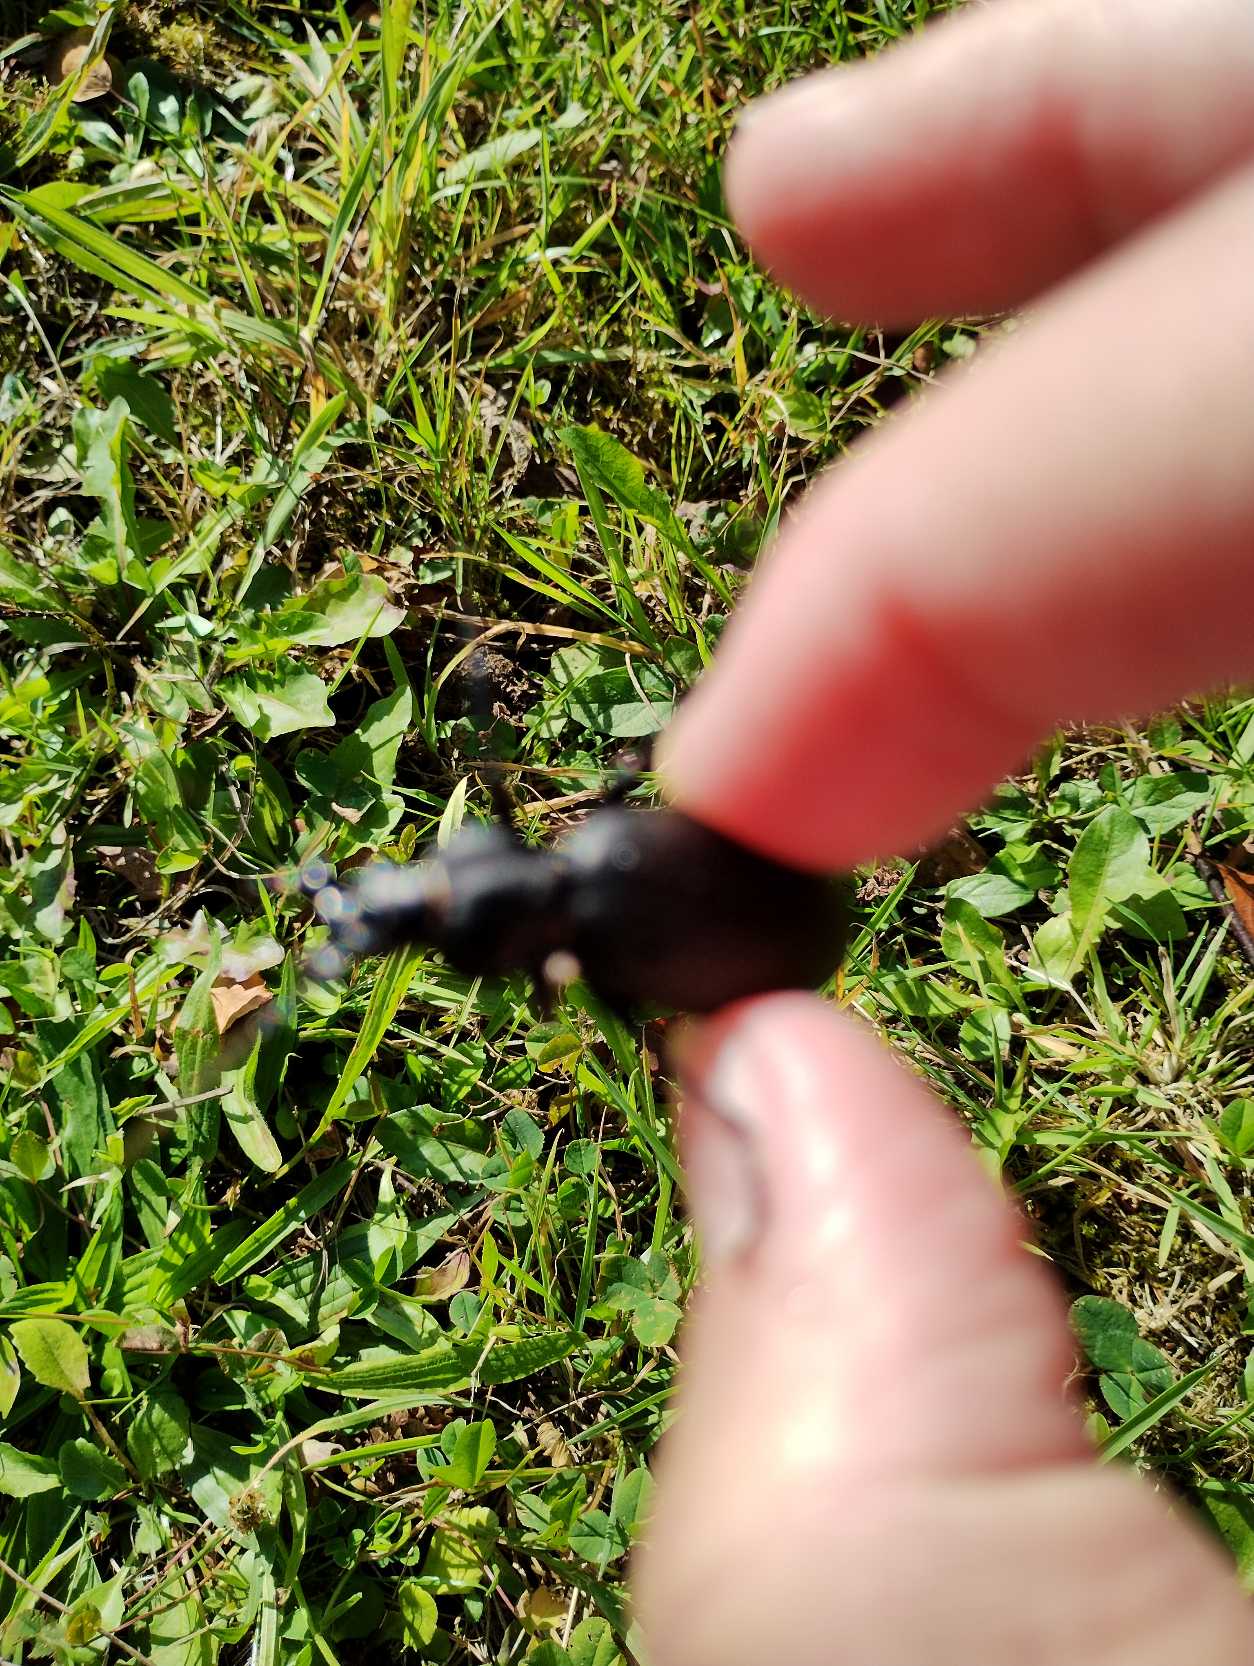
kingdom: Animalia
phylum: Arthropoda
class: Insecta
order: Coleoptera
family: Carabidae
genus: Carabus
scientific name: Carabus coriaceus
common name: Læderløber
